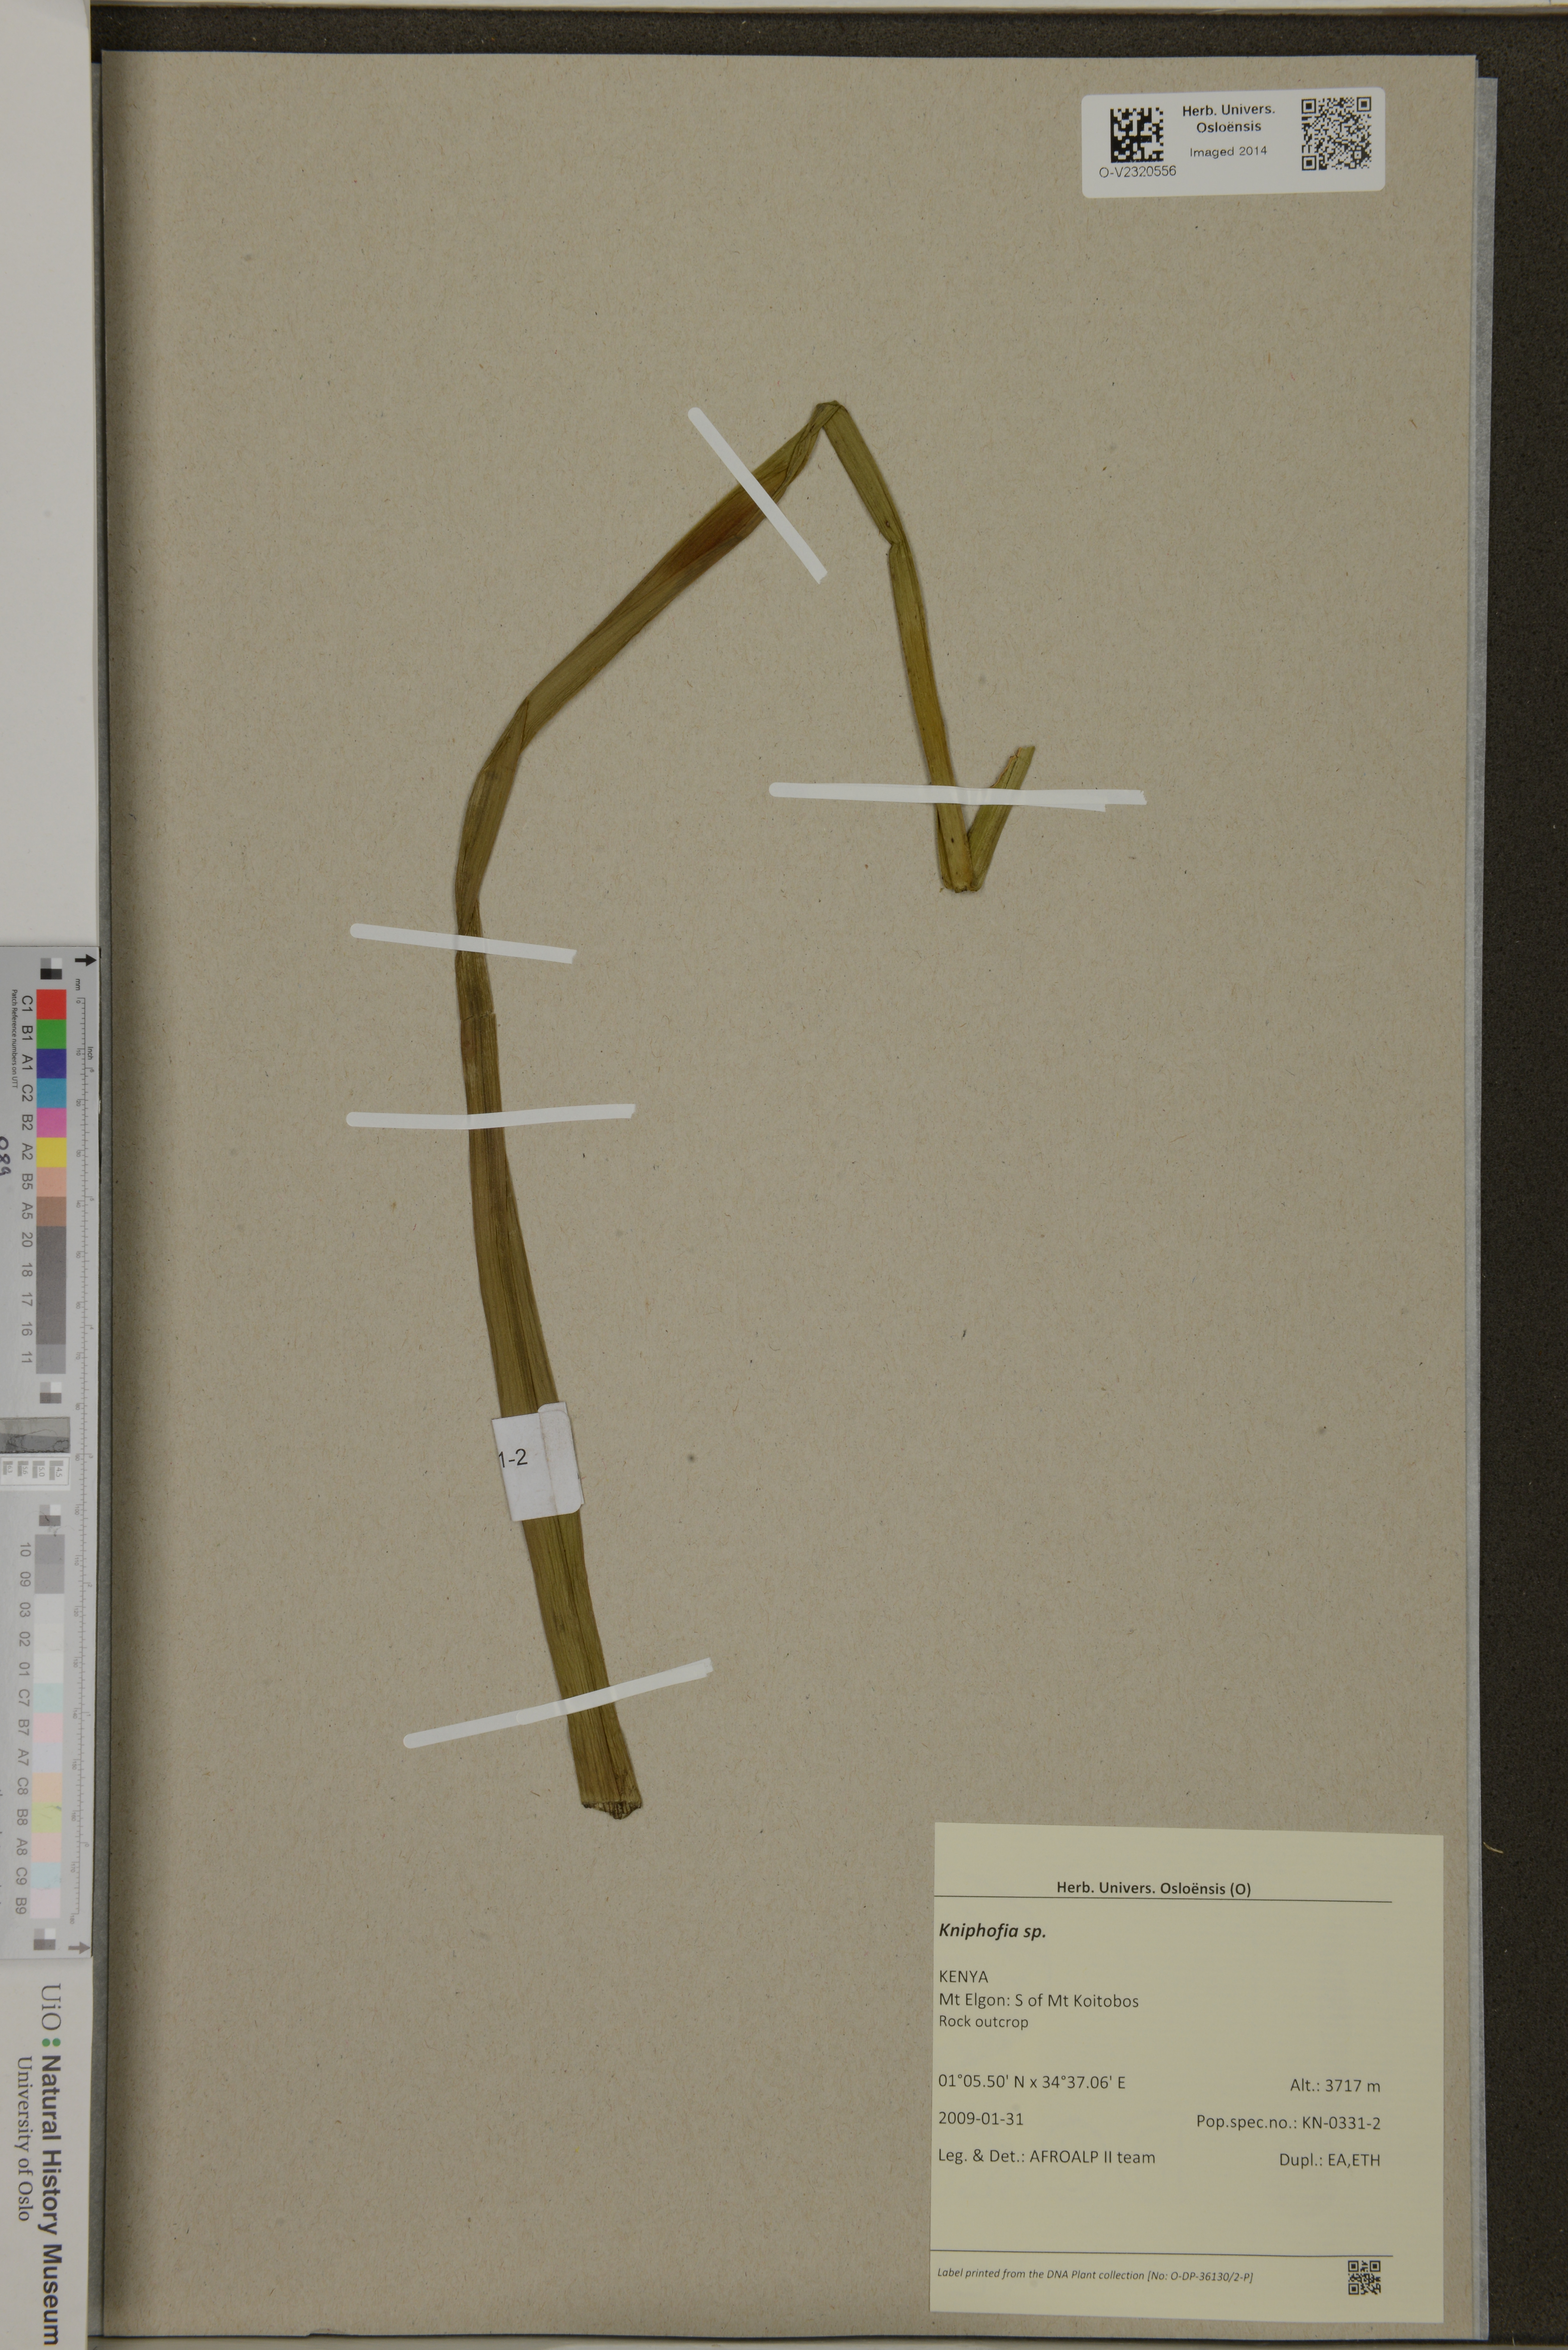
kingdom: Plantae
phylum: Tracheophyta
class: Liliopsida
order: Asparagales
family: Asphodelaceae
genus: Kniphofia
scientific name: Kniphofia
